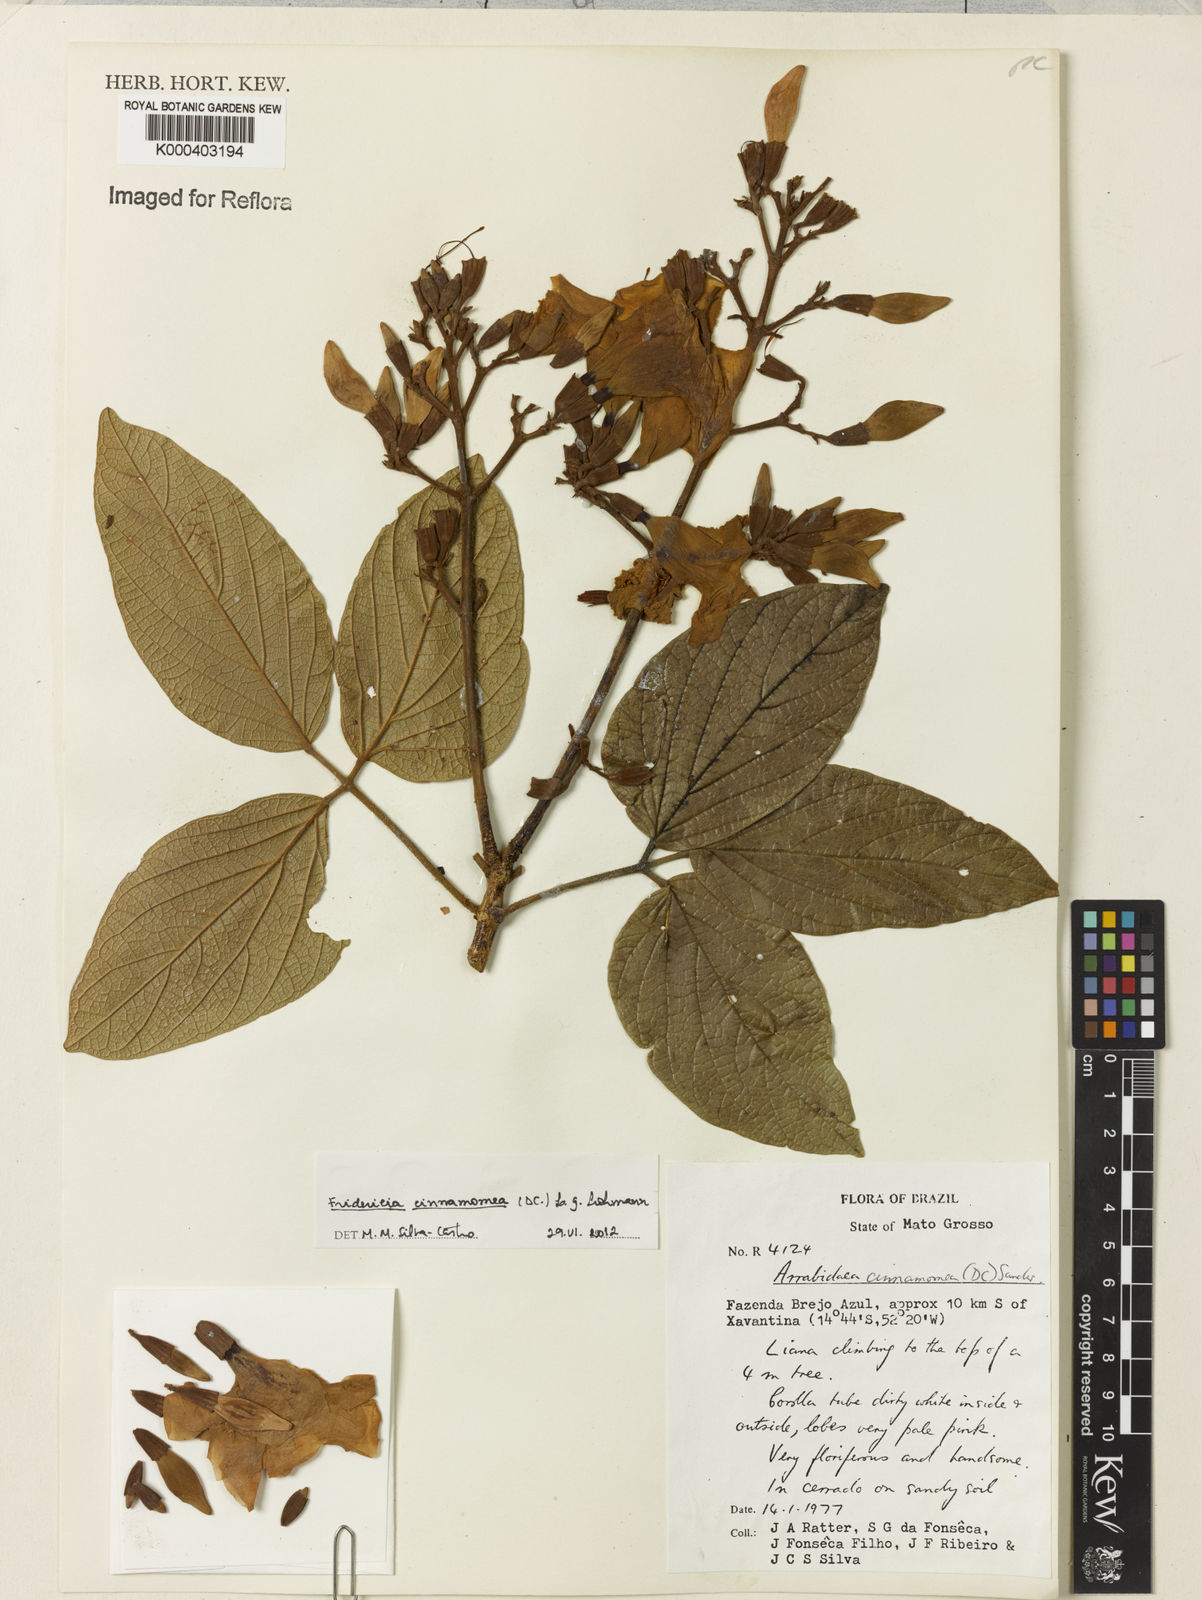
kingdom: Plantae
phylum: Tracheophyta
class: Magnoliopsida
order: Lamiales
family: Bignoniaceae
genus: Fridericia
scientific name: Fridericia cinnamomea
